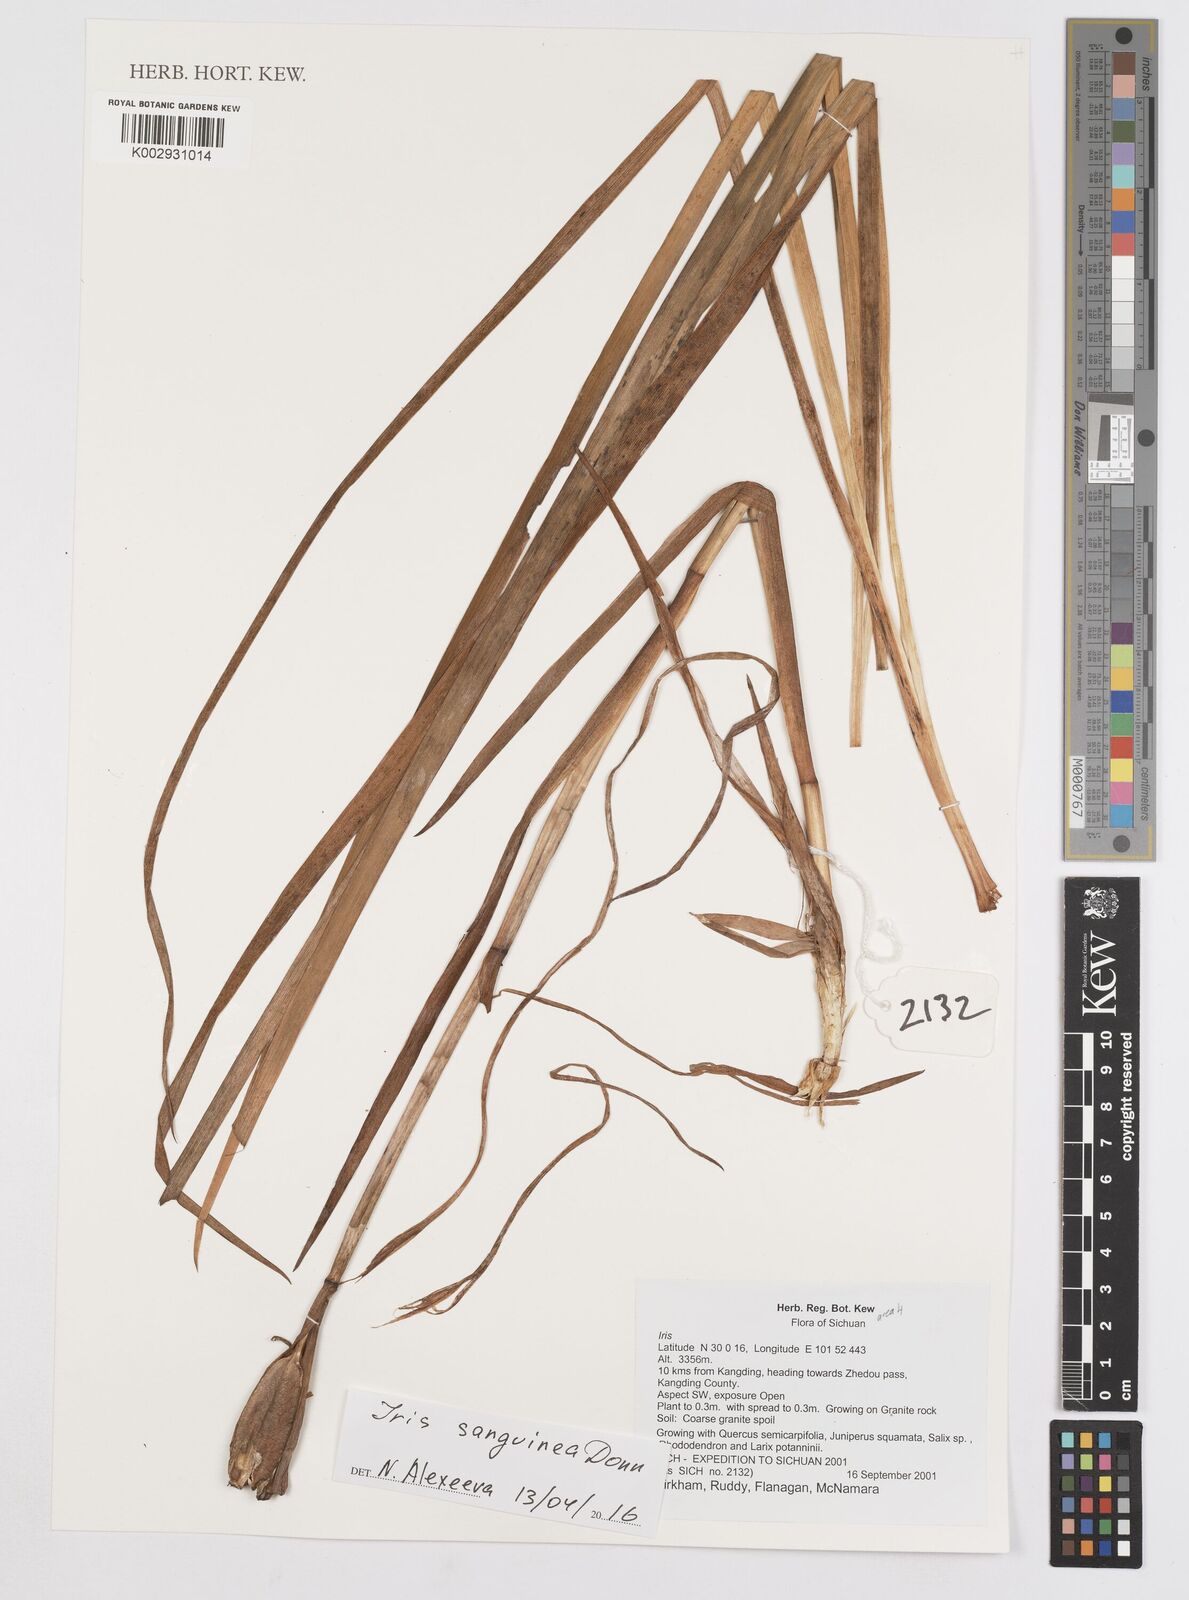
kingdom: Plantae
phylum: Tracheophyta
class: Liliopsida
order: Asparagales
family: Iridaceae
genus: Iris
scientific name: Iris
